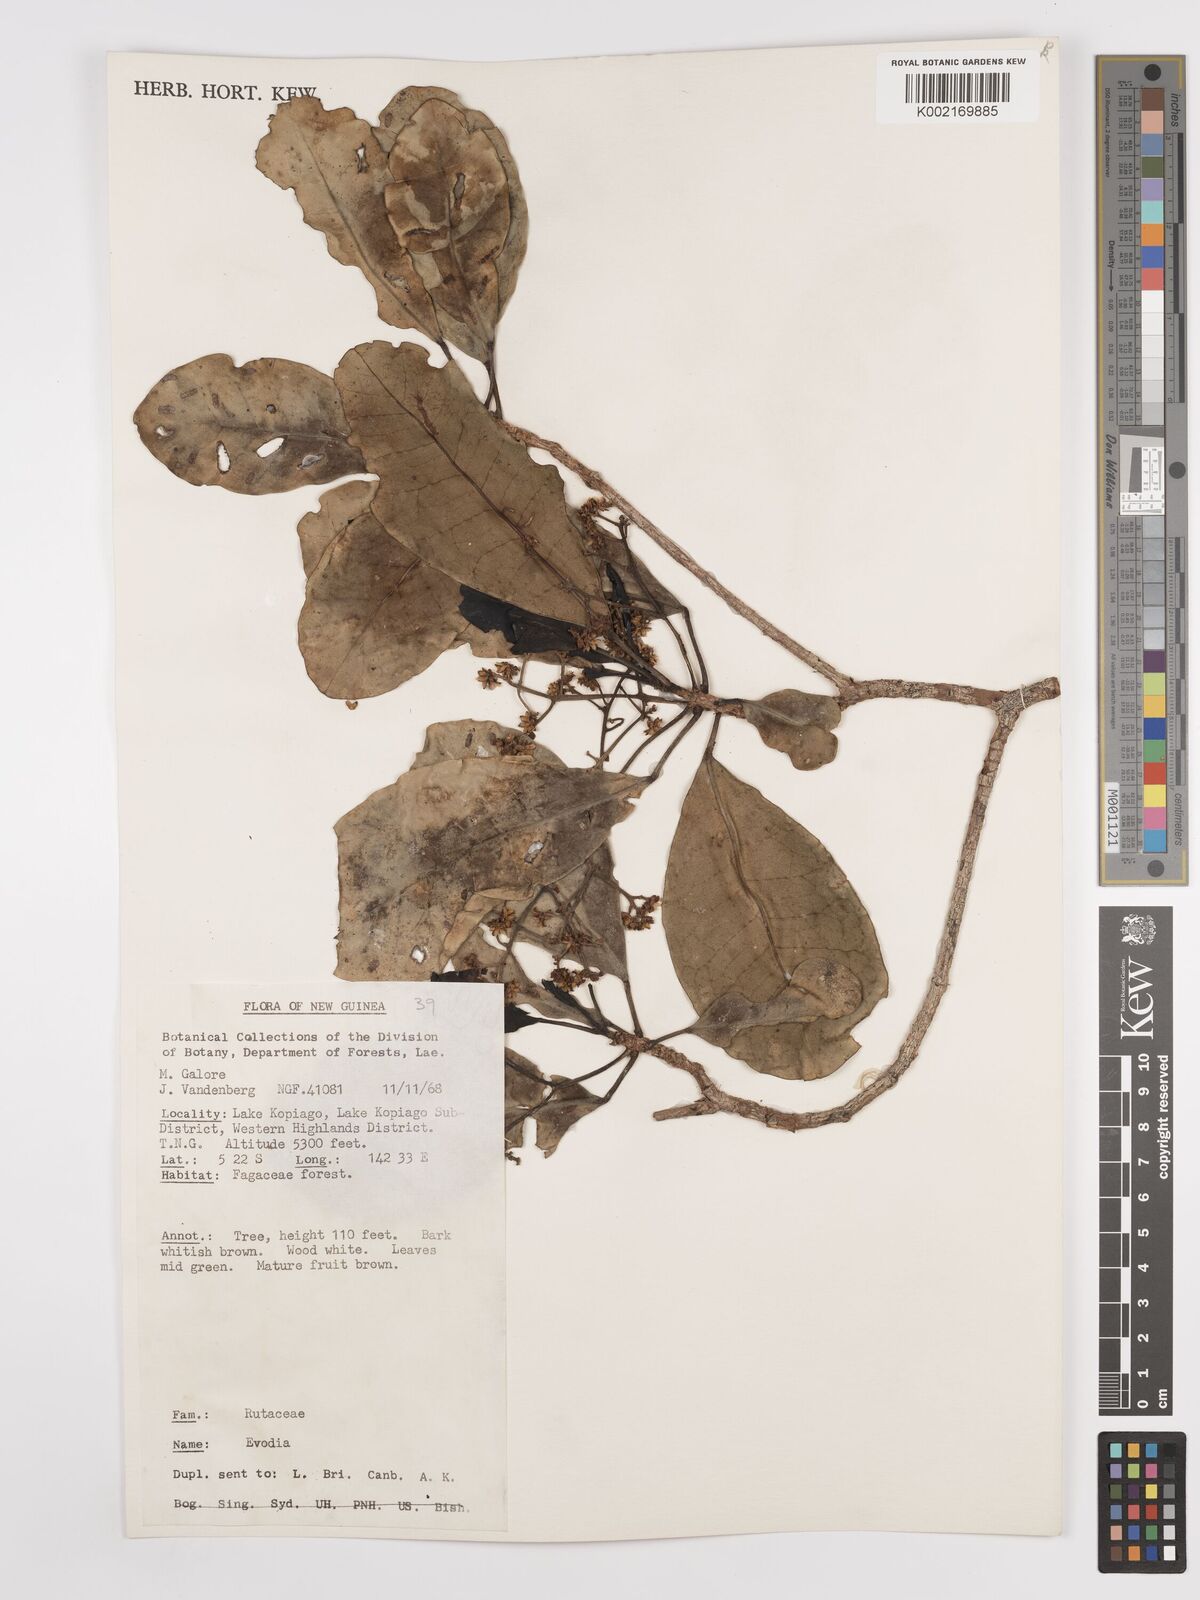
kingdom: Plantae
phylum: Tracheophyta
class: Magnoliopsida
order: Sapindales
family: Rutaceae
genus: Euodia
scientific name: Euodia
